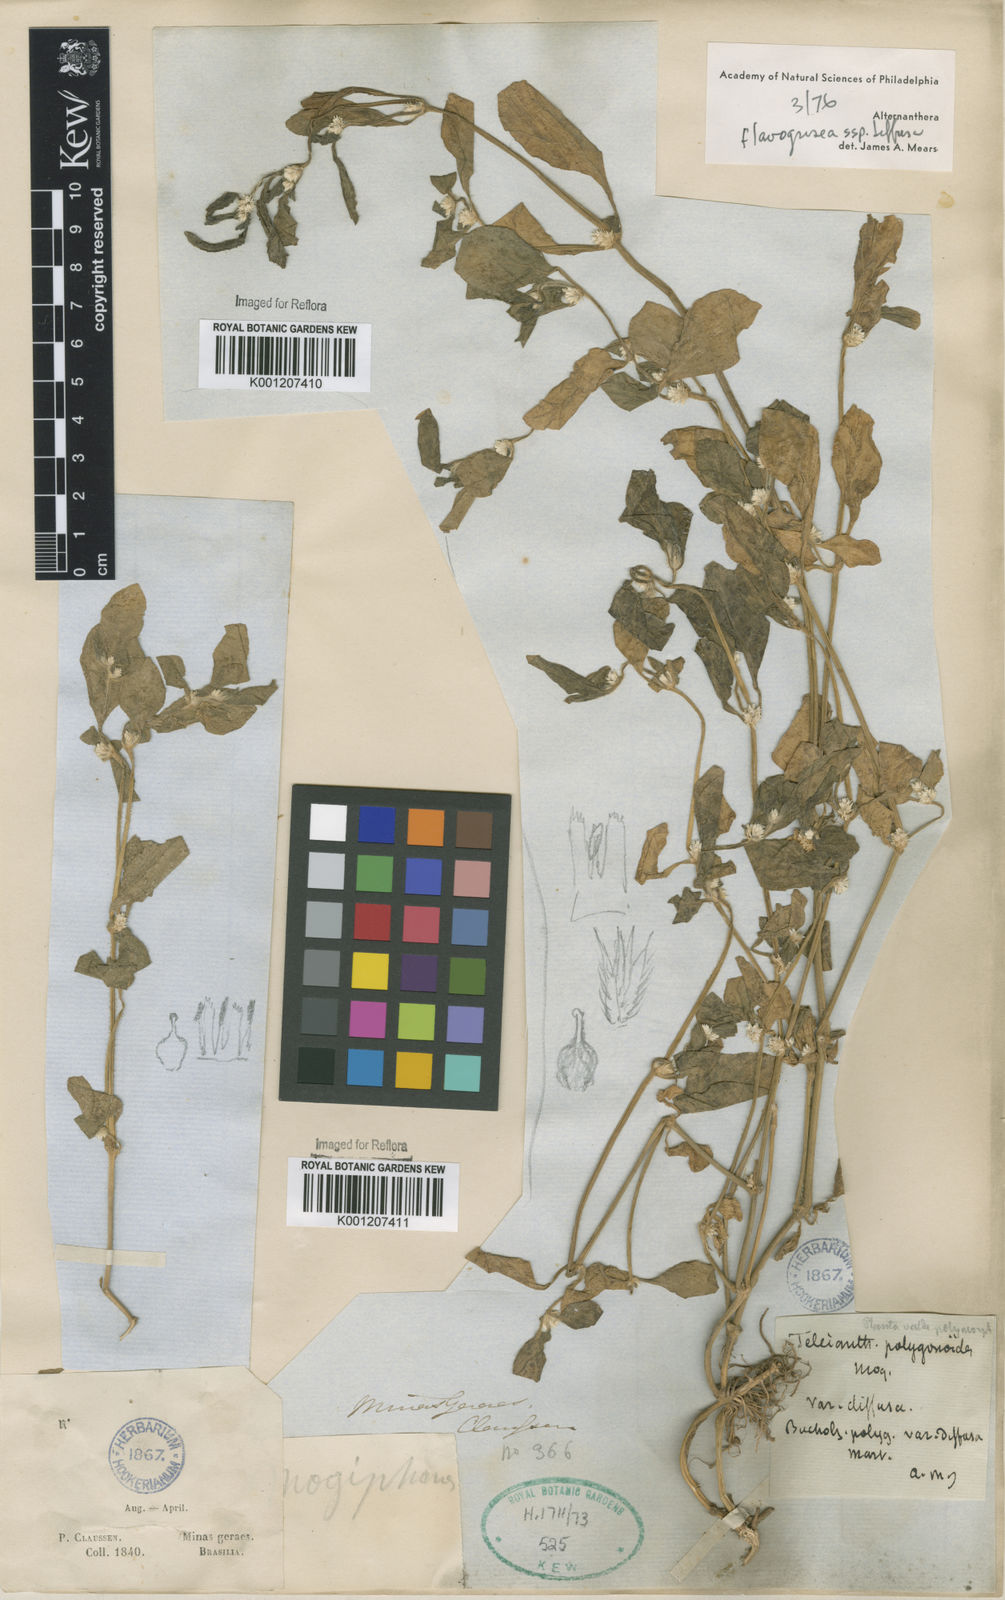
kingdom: Plantae
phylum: Tracheophyta
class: Magnoliopsida
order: Caryophyllales
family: Amaranthaceae
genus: Alternanthera
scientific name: Alternanthera halimifolia
